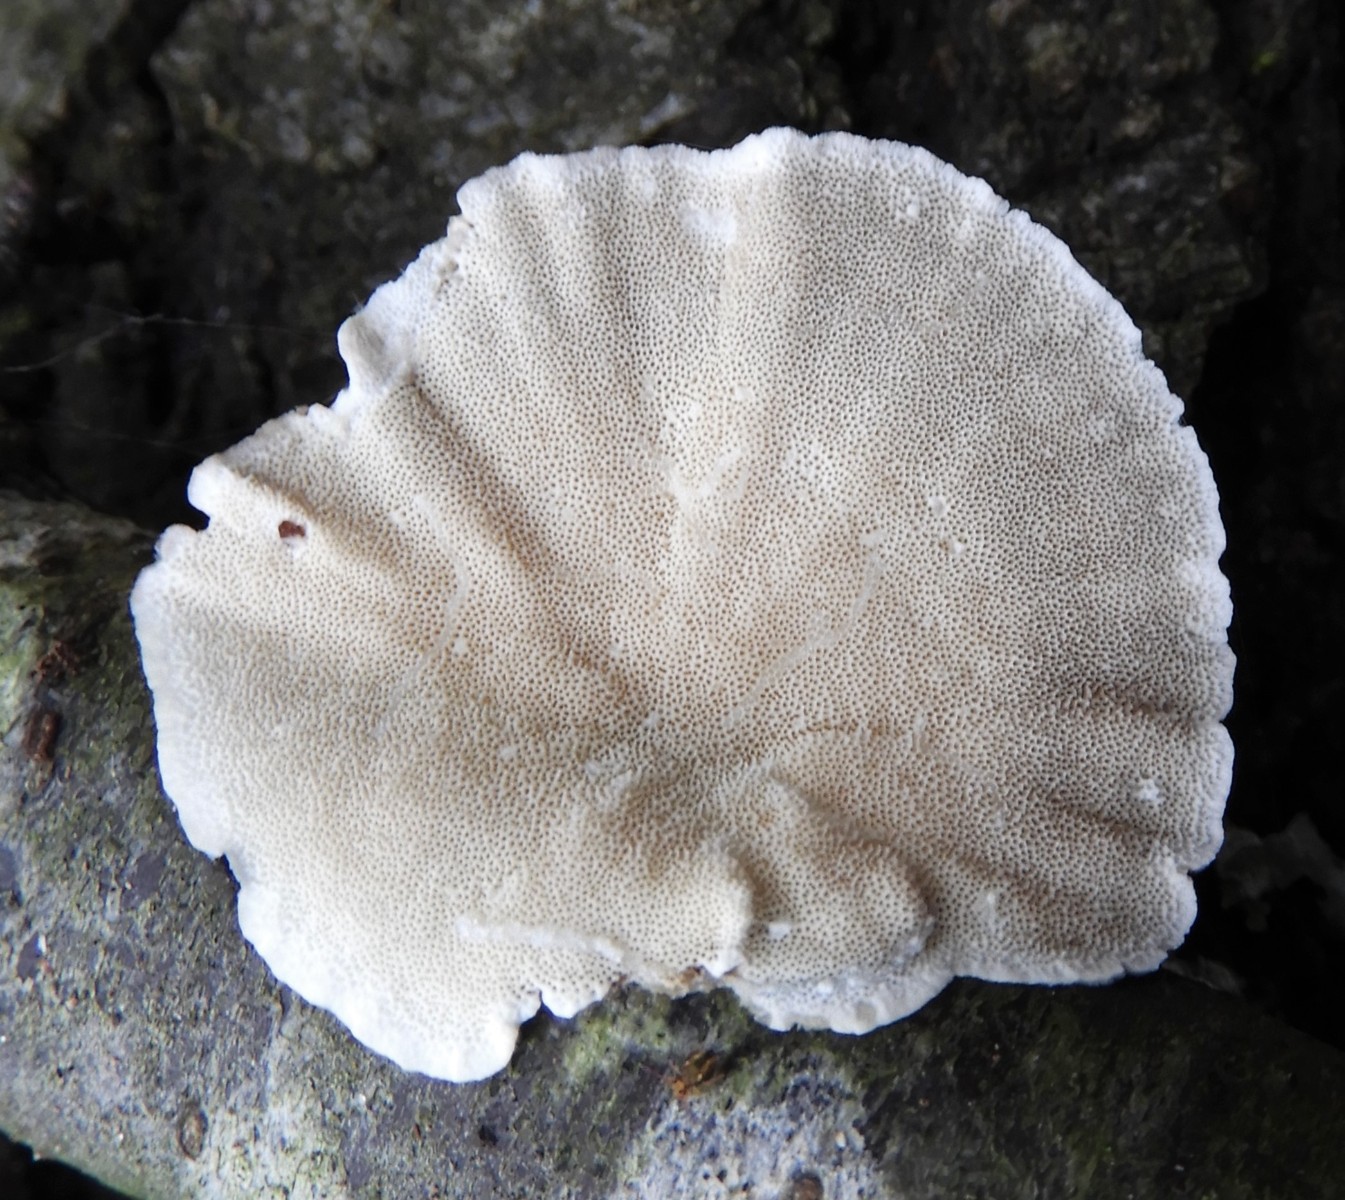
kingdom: Fungi
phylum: Basidiomycota
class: Agaricomycetes
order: Polyporales
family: Polyporaceae
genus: Trametes
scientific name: Trametes versicolor
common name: broget læderporesvamp
